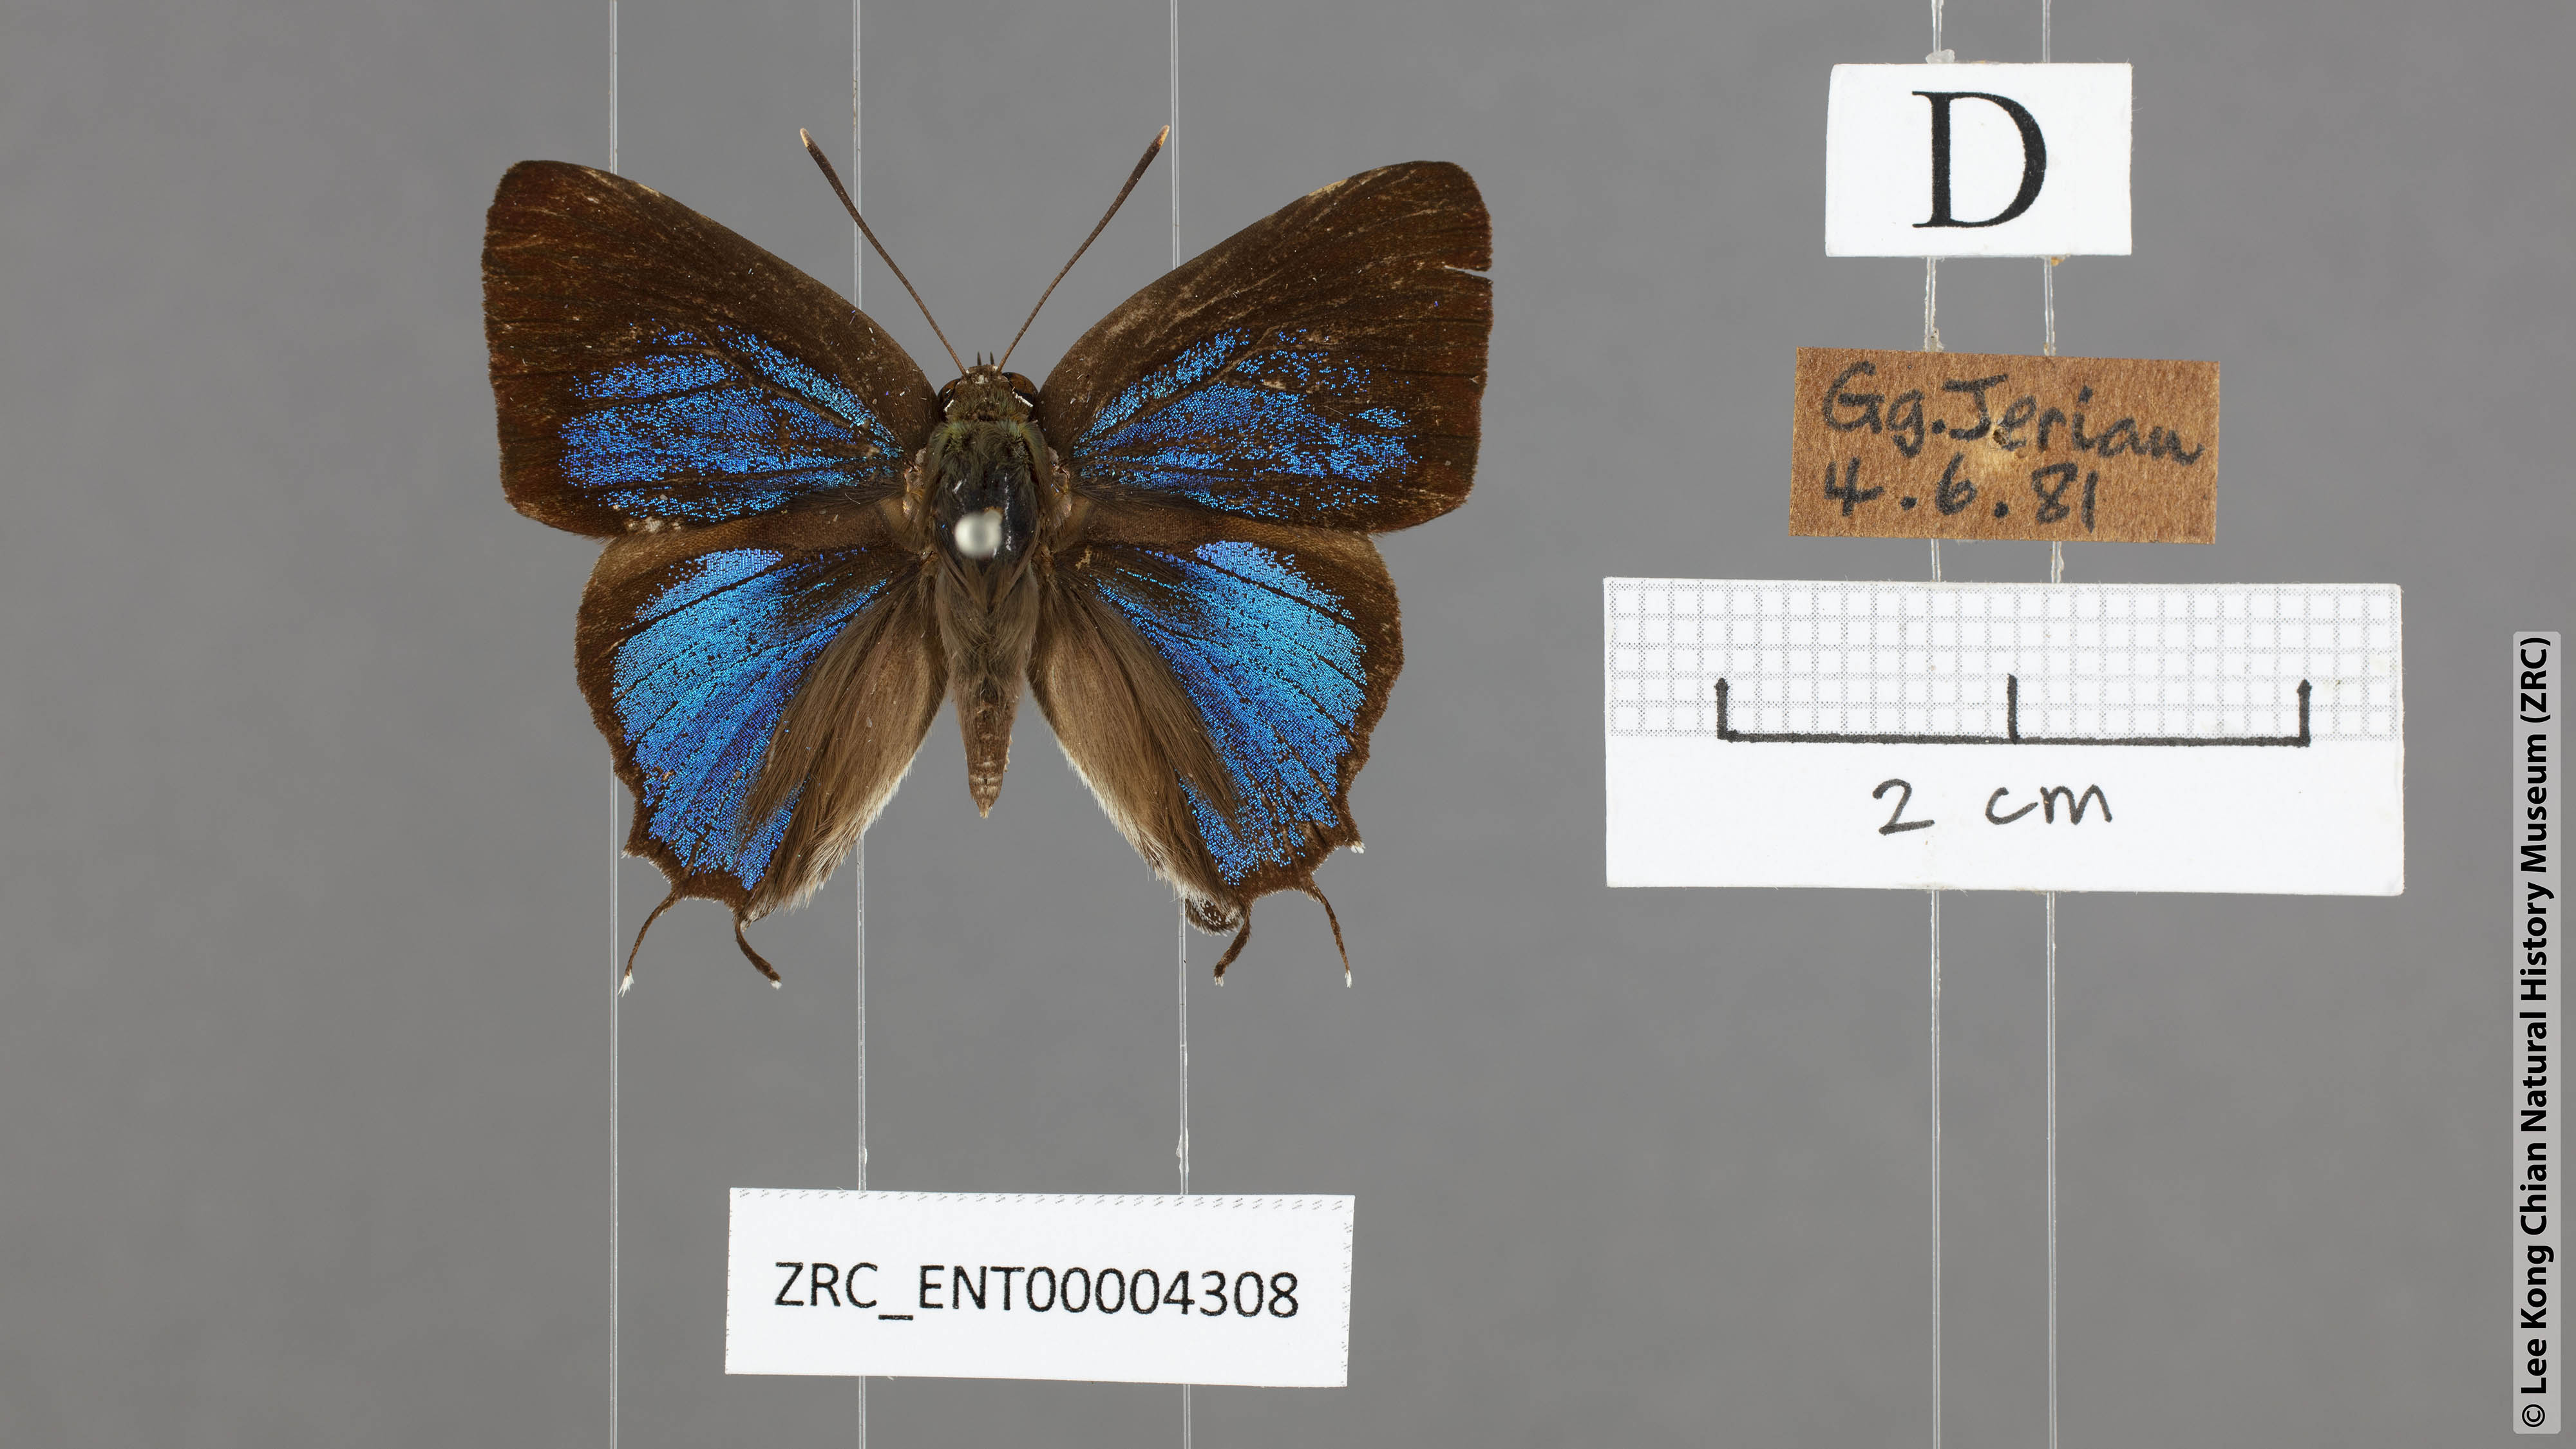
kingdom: Animalia
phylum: Arthropoda
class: Insecta
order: Lepidoptera
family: Lycaenidae
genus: Iraota
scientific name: Iraota rochana
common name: Scarce silverstreak blue
